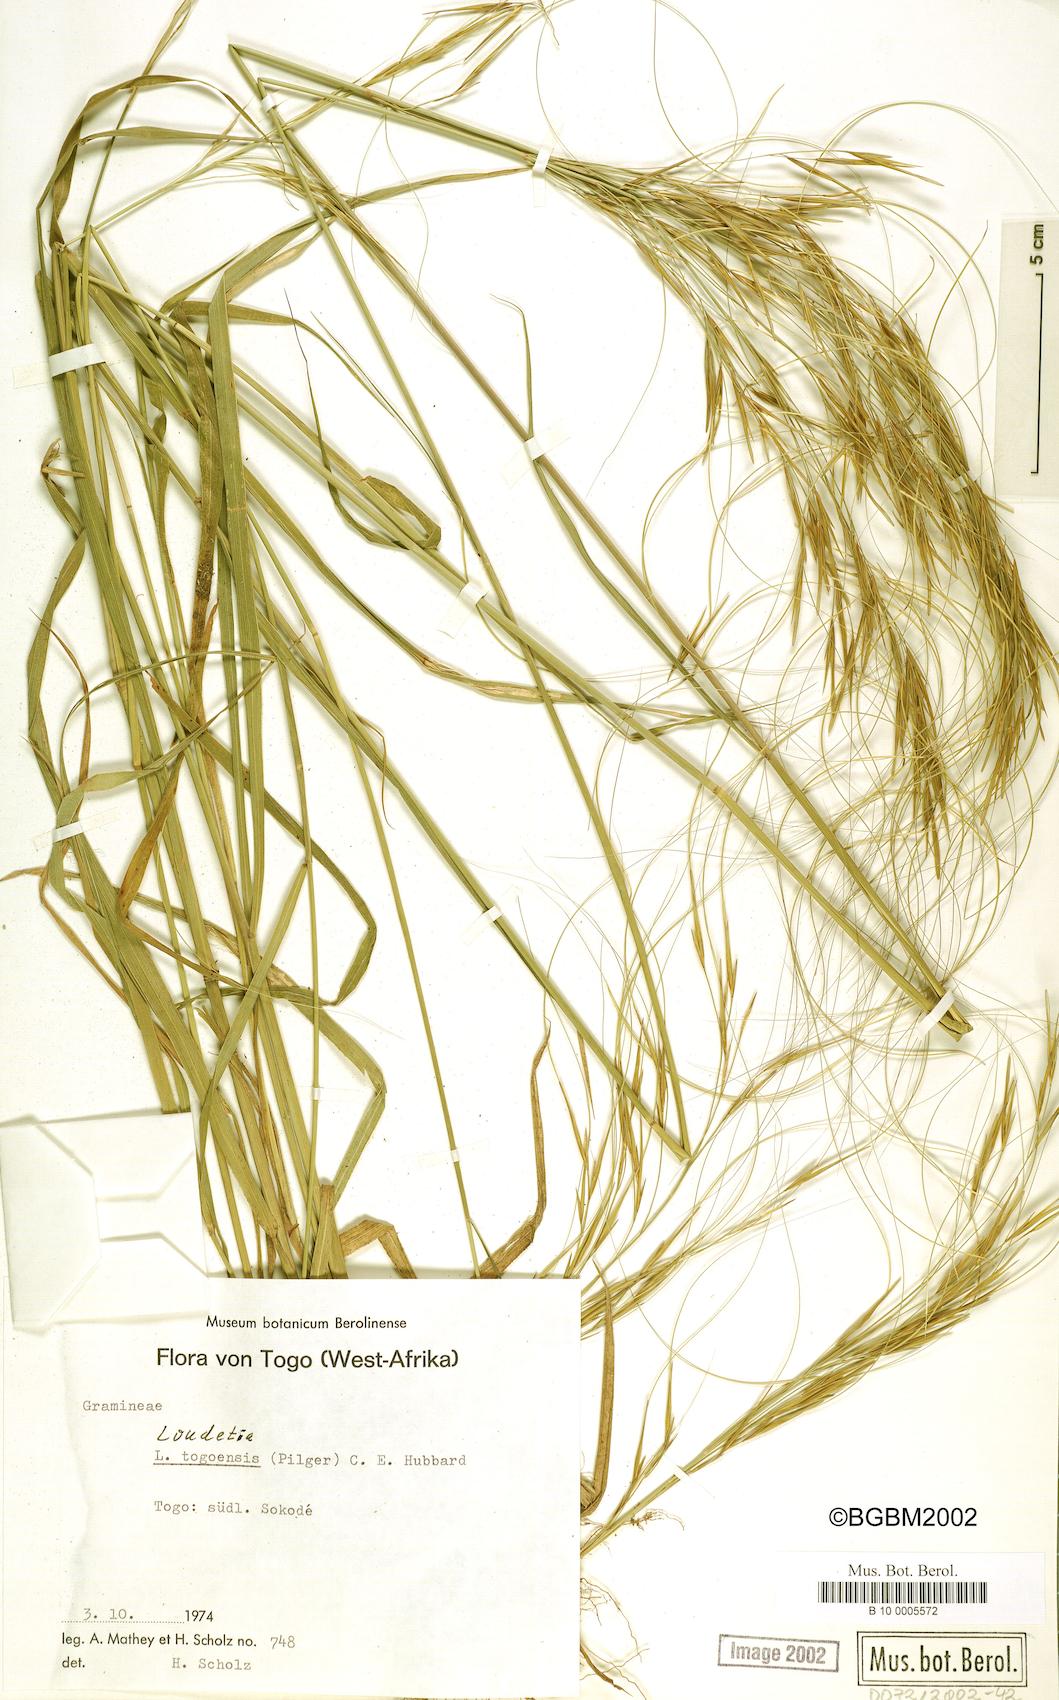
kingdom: Plantae
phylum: Tracheophyta
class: Liliopsida
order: Poales
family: Poaceae
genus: Loudetia
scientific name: Loudetia togoensis
